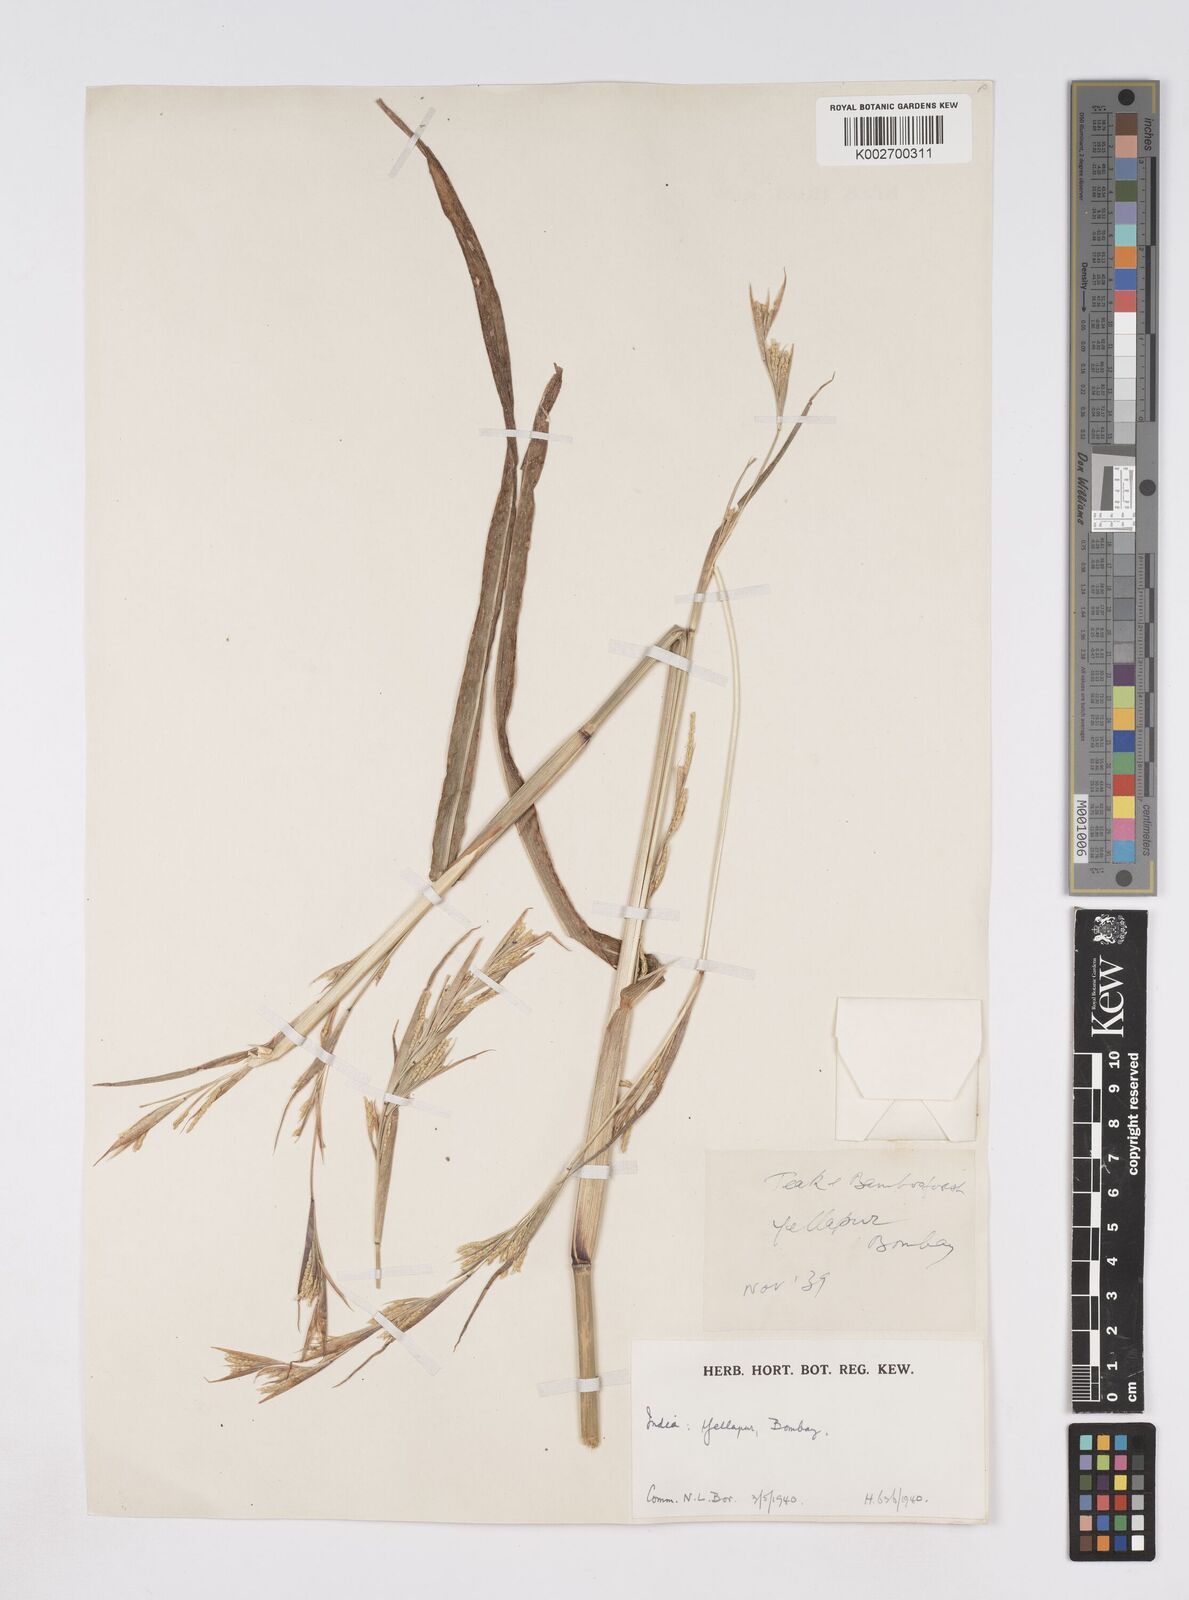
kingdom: Plantae
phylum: Tracheophyta
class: Liliopsida
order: Poales
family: Poaceae
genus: Rottboellia
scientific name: Rottboellia clarkei
